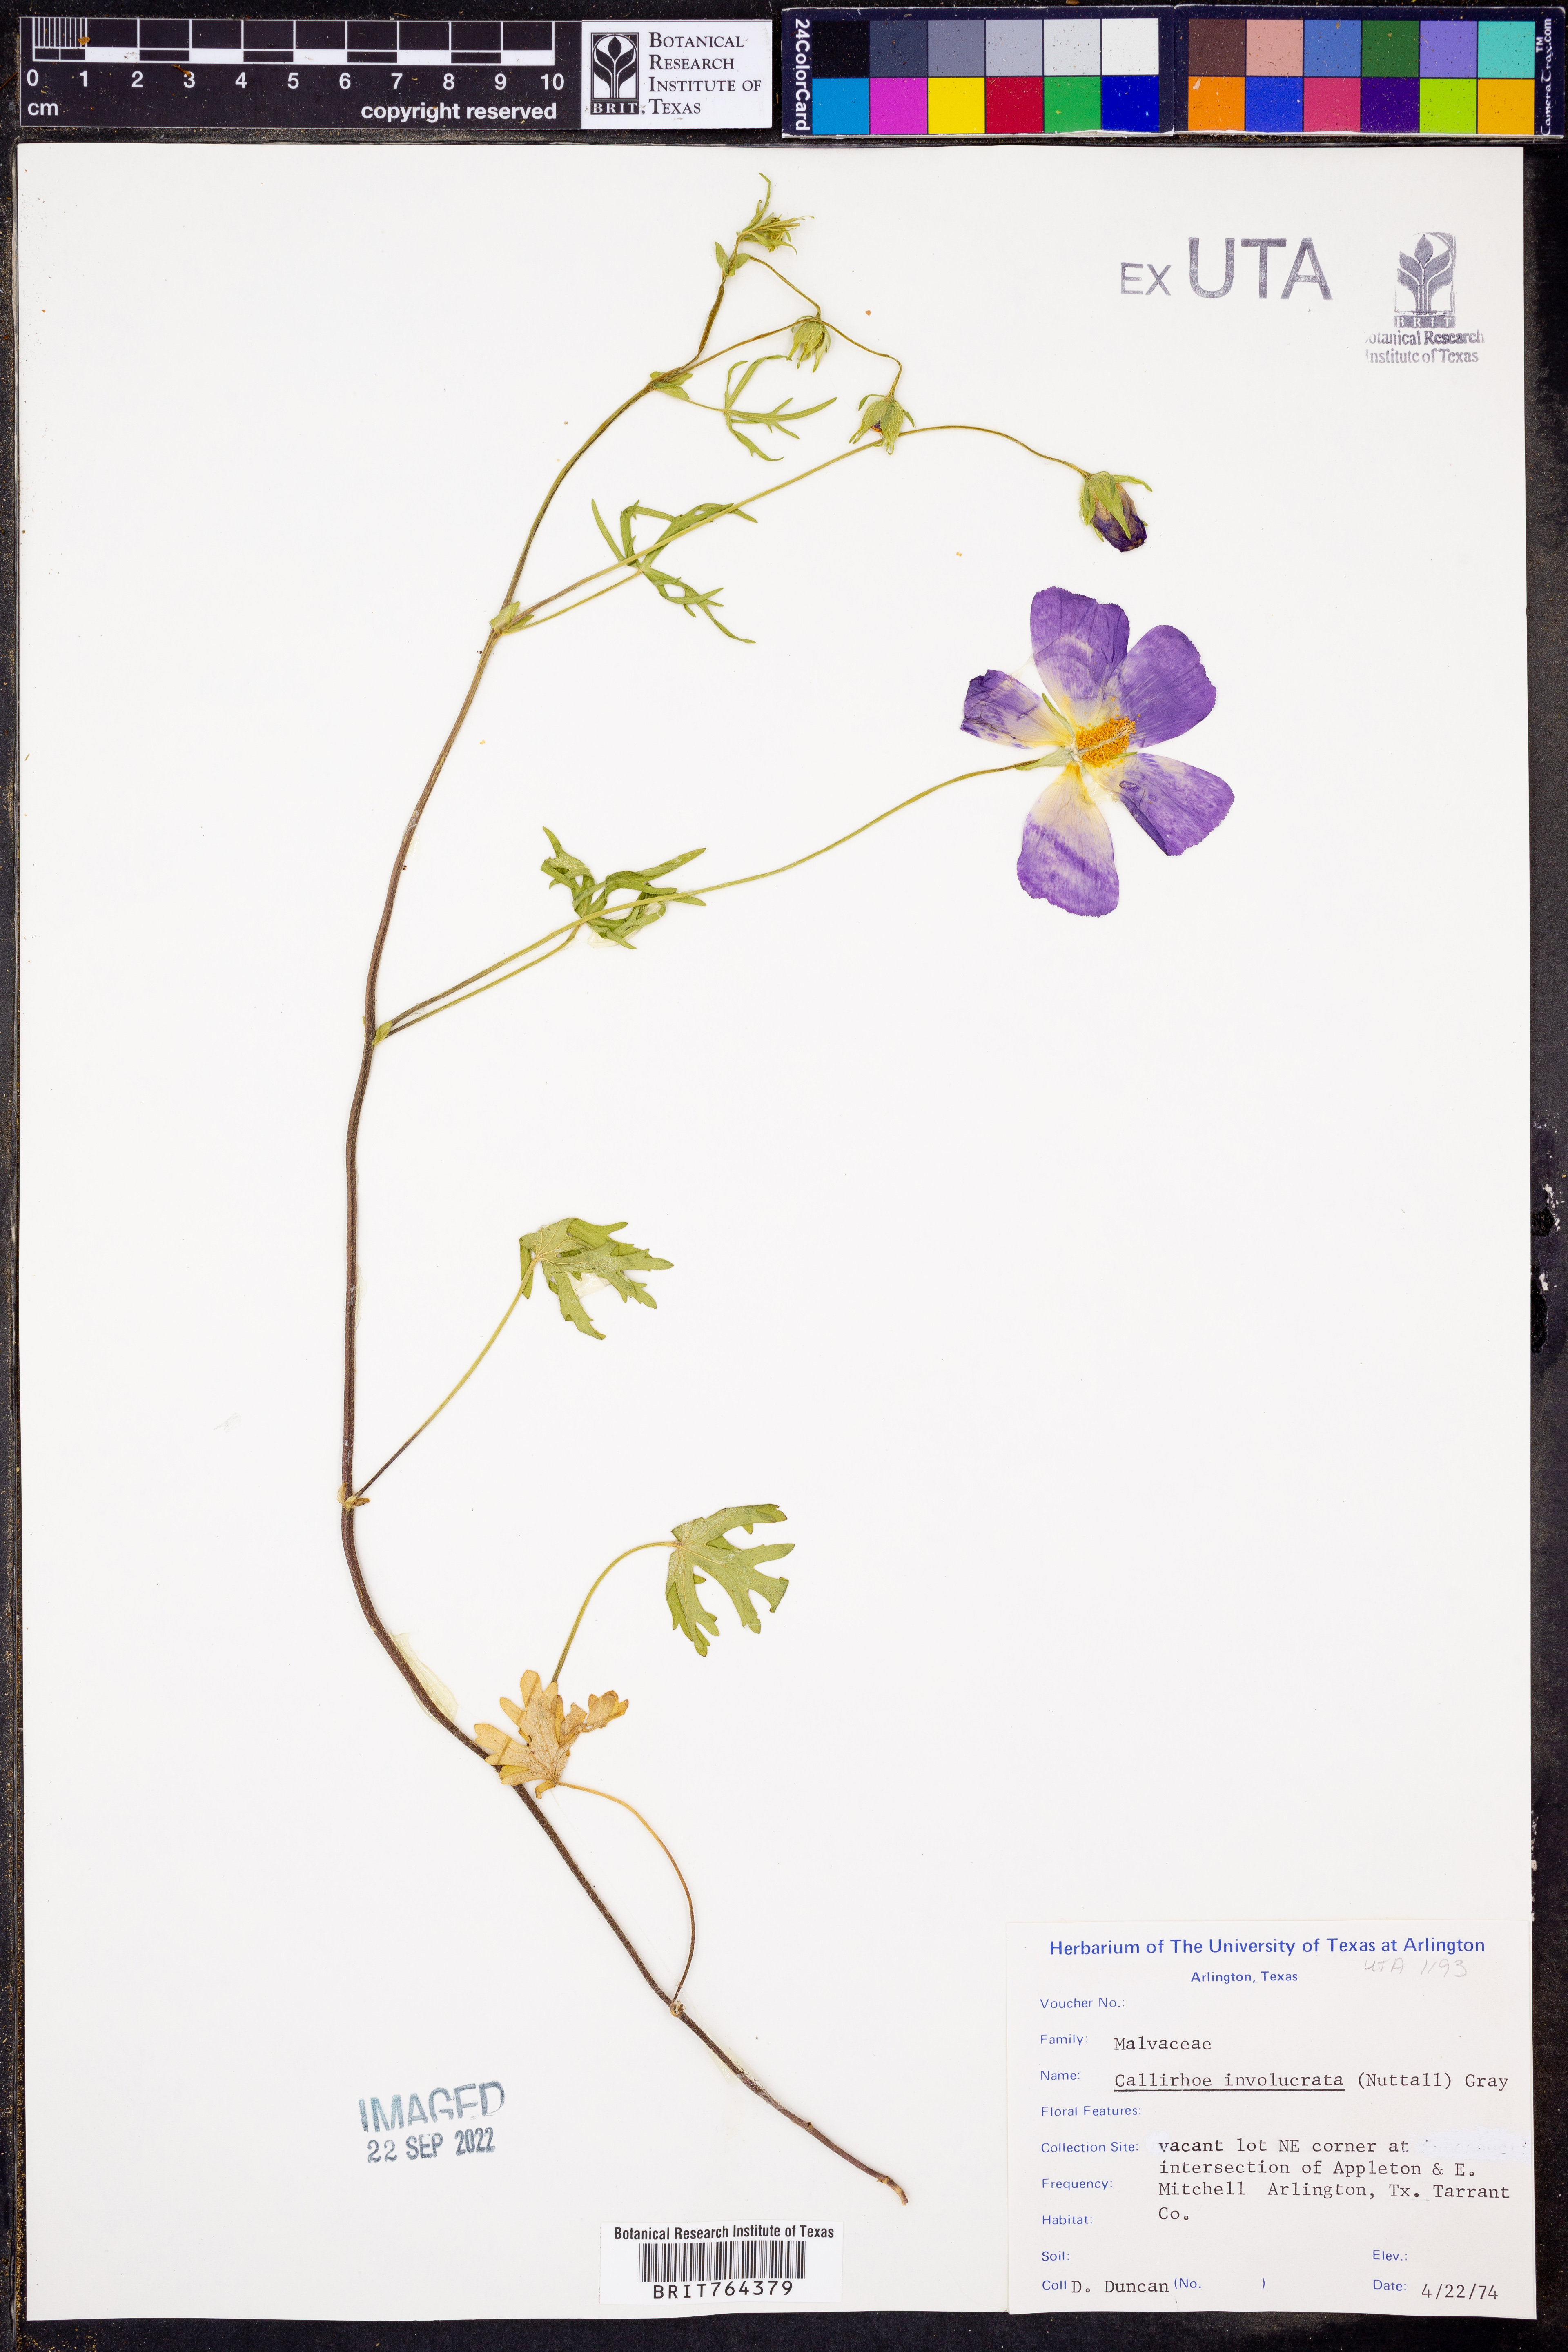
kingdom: Plantae
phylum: Tracheophyta
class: Magnoliopsida
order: Malvales
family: Malvaceae
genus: Callirhoe
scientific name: Callirhoe involucrata
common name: Purple poppy-mallow
